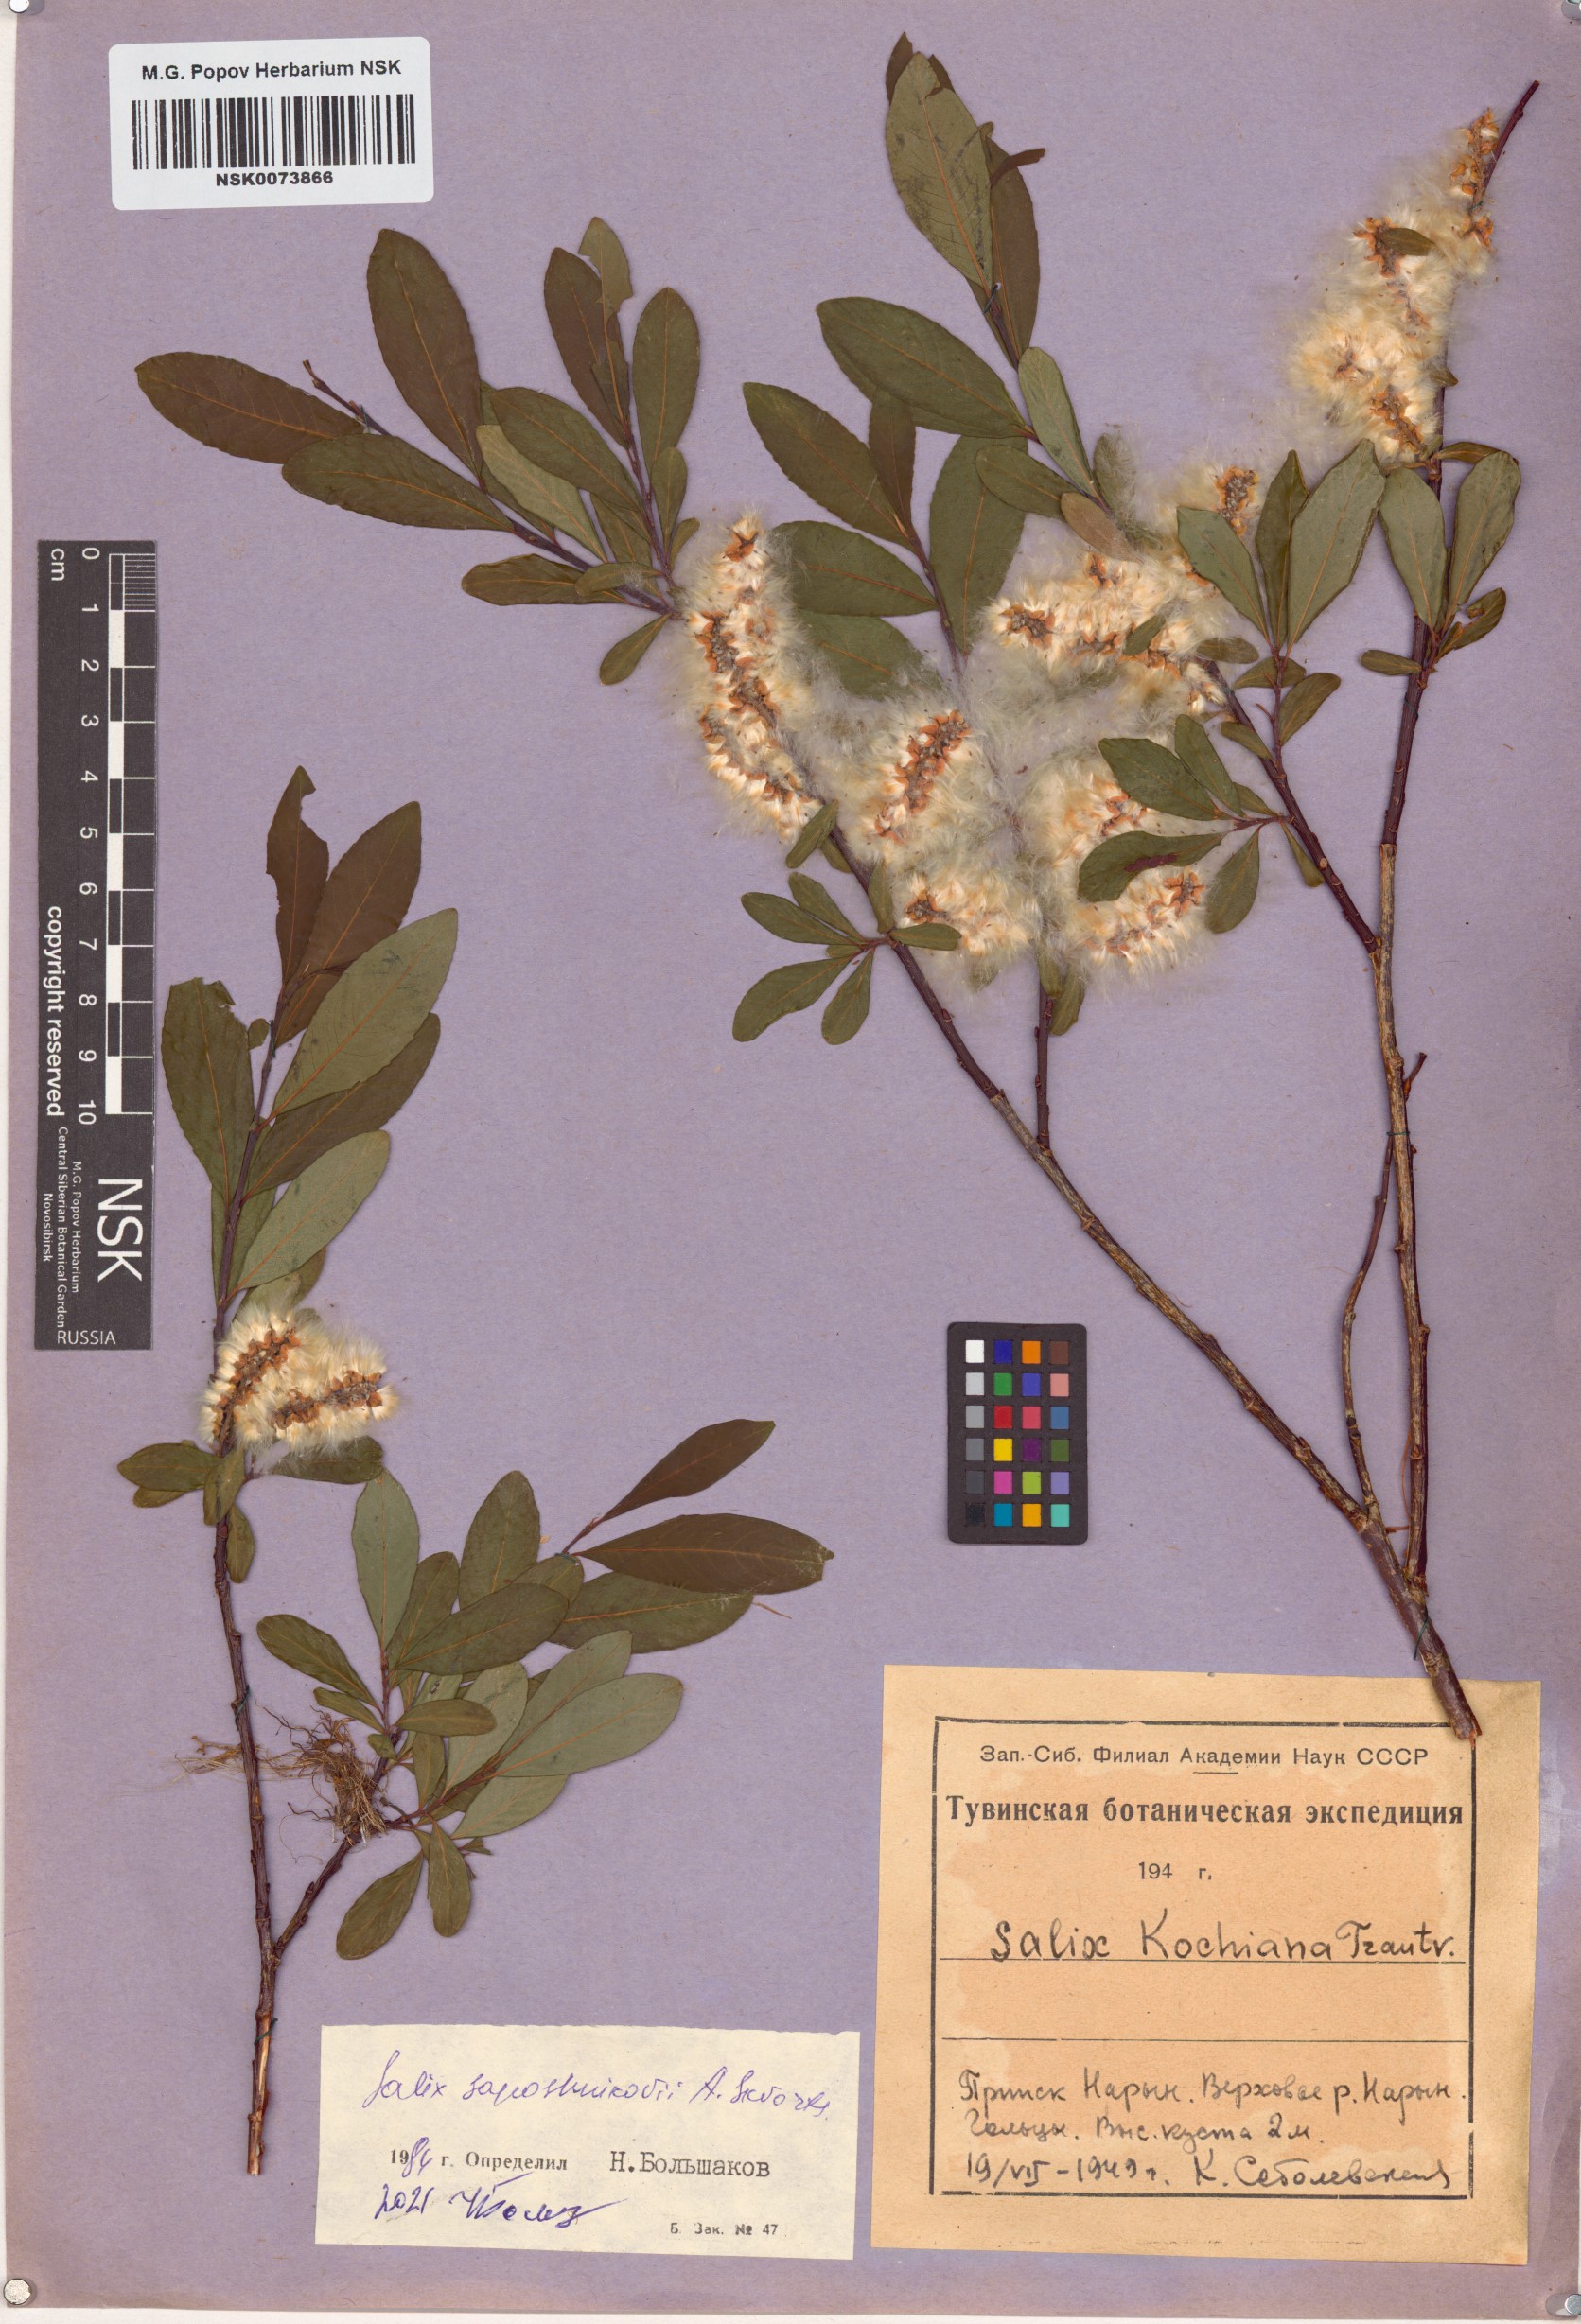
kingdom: Plantae
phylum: Tracheophyta
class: Magnoliopsida
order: Malpighiales
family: Salicaceae
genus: Salix
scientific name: Salix saposhnikovii
